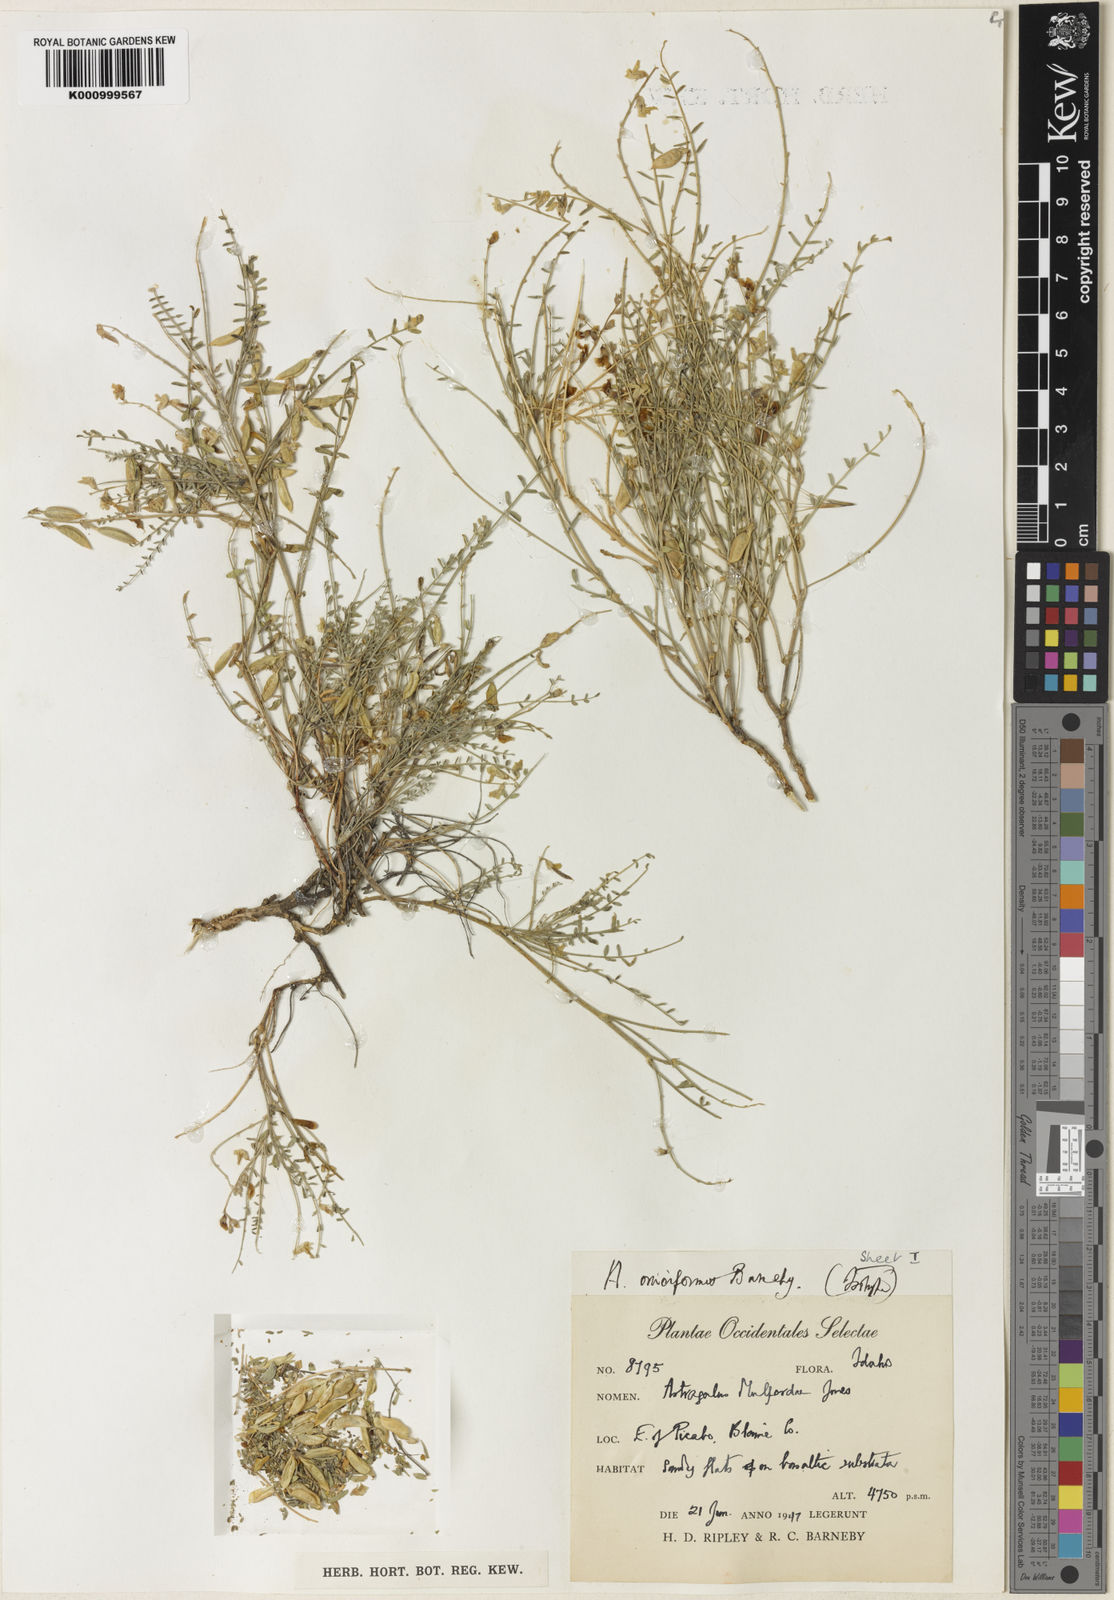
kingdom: Plantae
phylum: Tracheophyta
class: Magnoliopsida
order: Fabales
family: Fabaceae
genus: Astragalus
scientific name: Astragalus oniciformis
